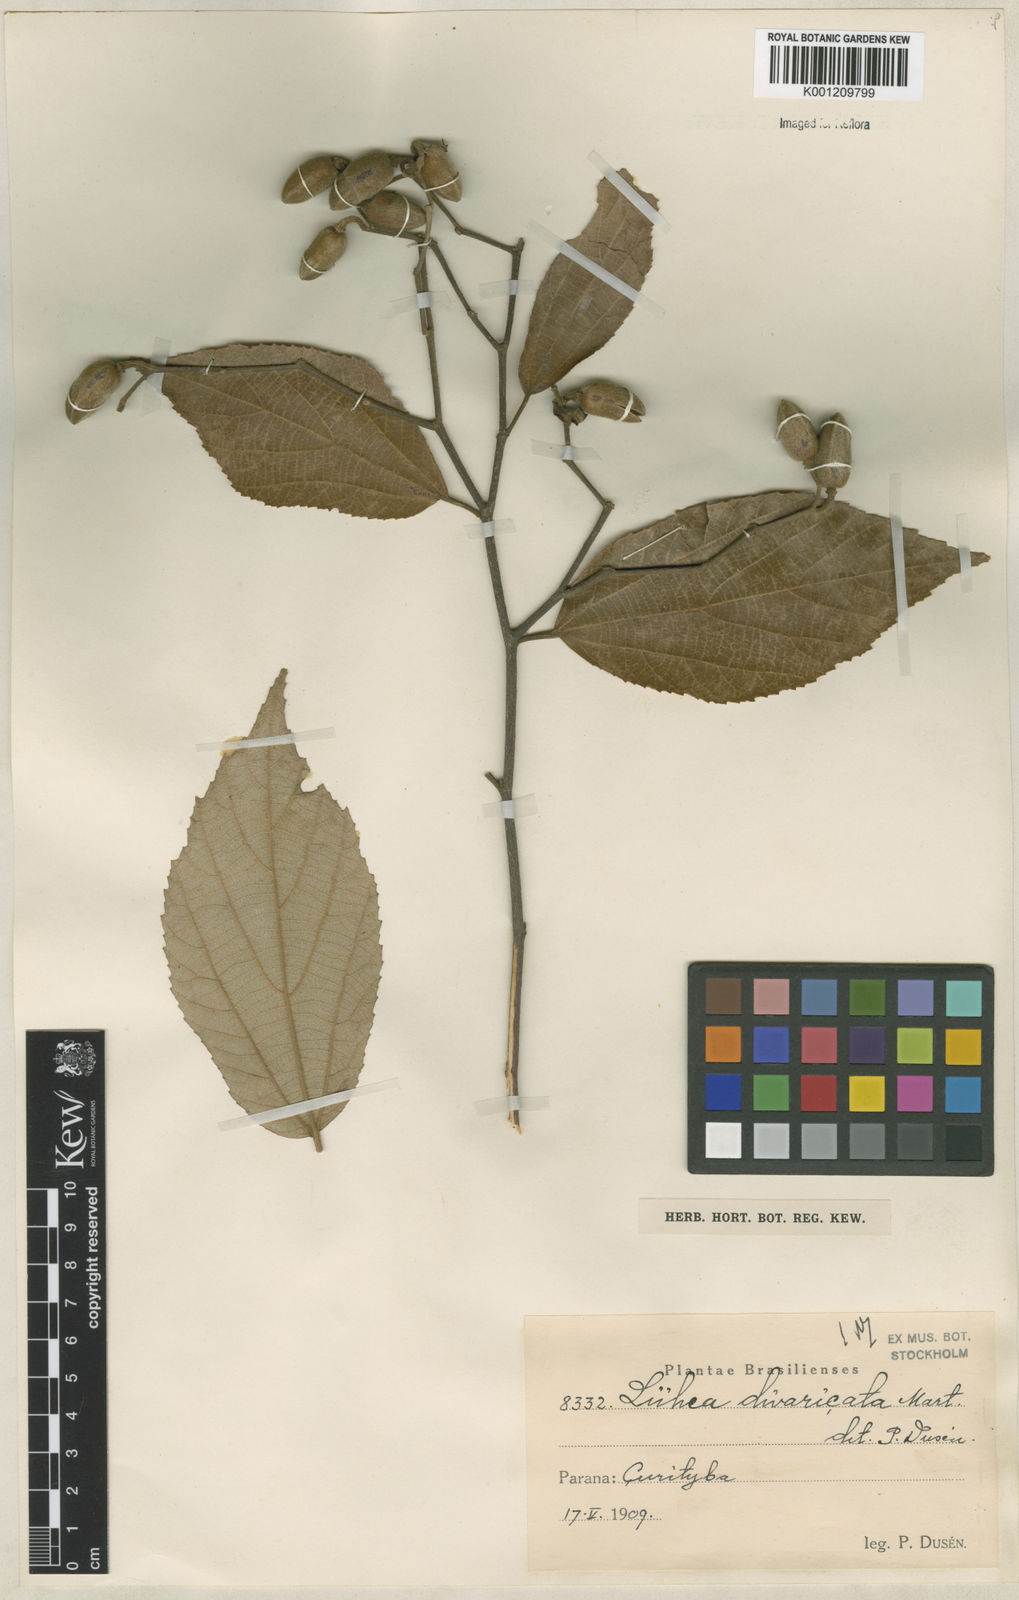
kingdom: Plantae
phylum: Tracheophyta
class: Magnoliopsida
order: Malvales
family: Malvaceae
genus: Luehea
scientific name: Luehea divaricata
